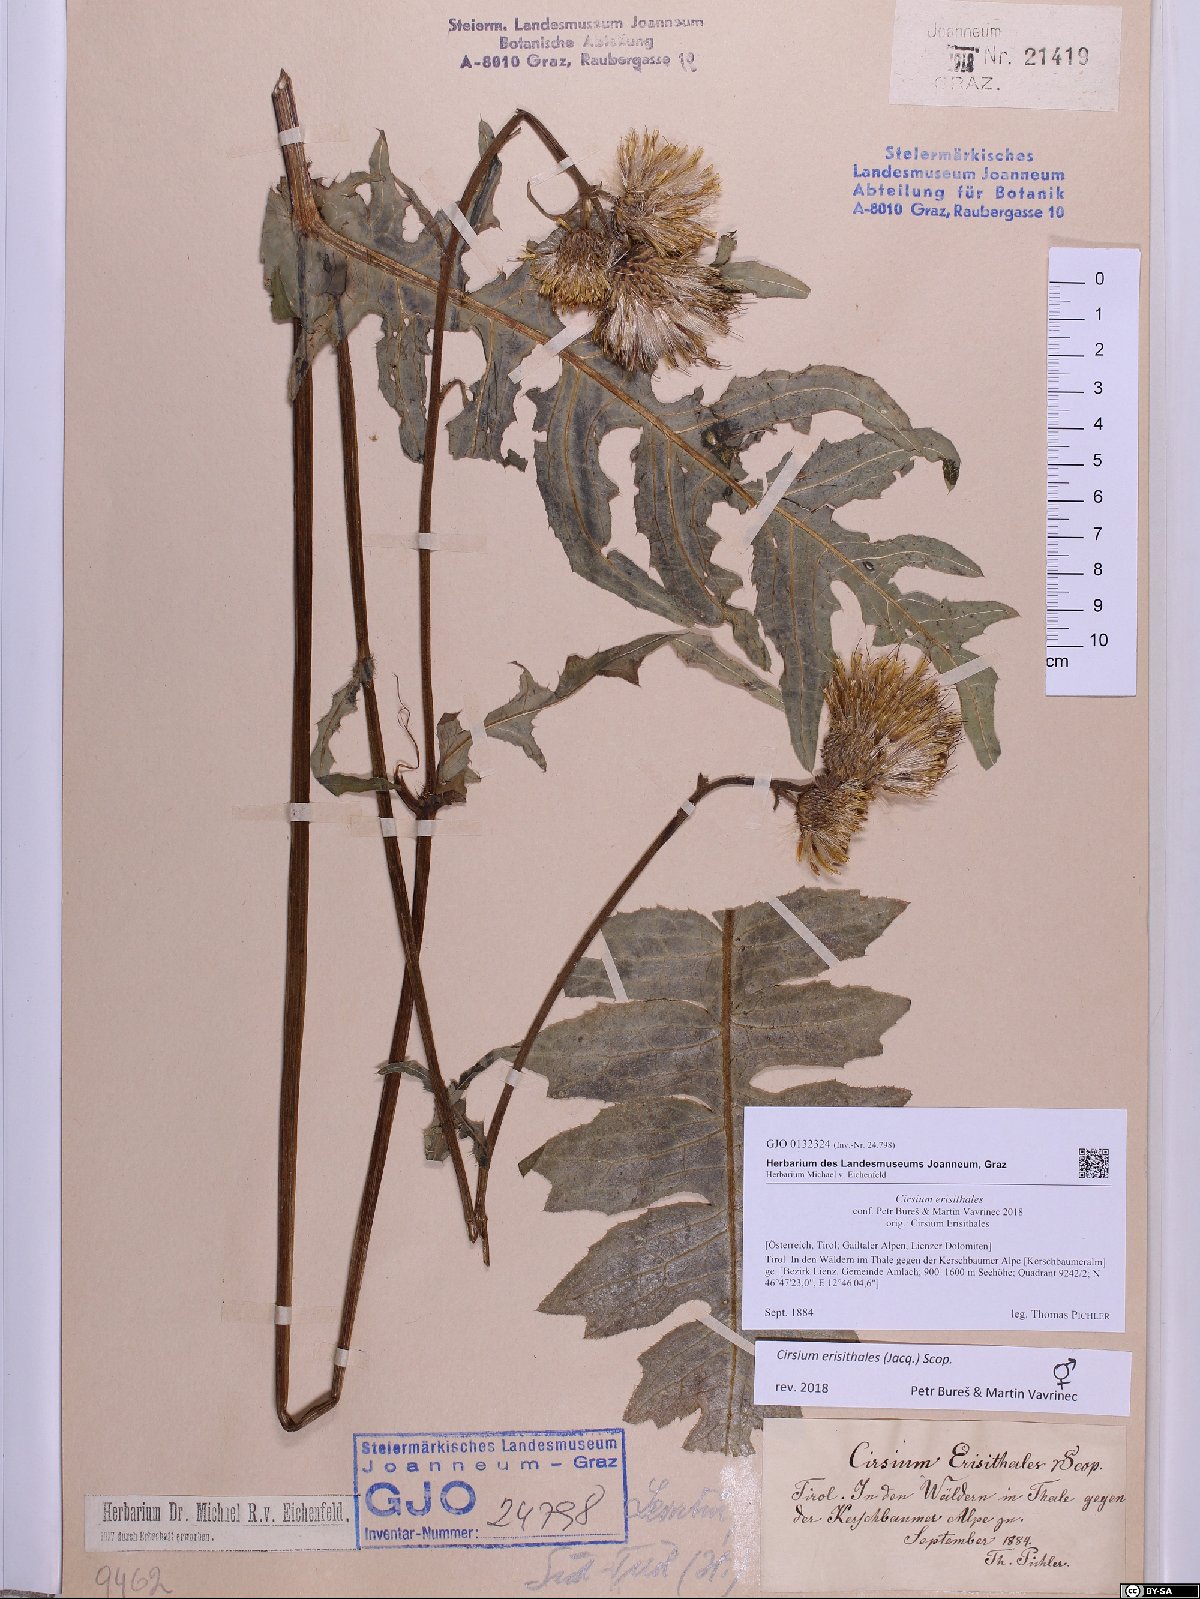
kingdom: Plantae
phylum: Tracheophyta
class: Magnoliopsida
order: Asterales
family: Asteraceae
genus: Cirsium
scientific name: Cirsium erisithales
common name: Yellow thistle
